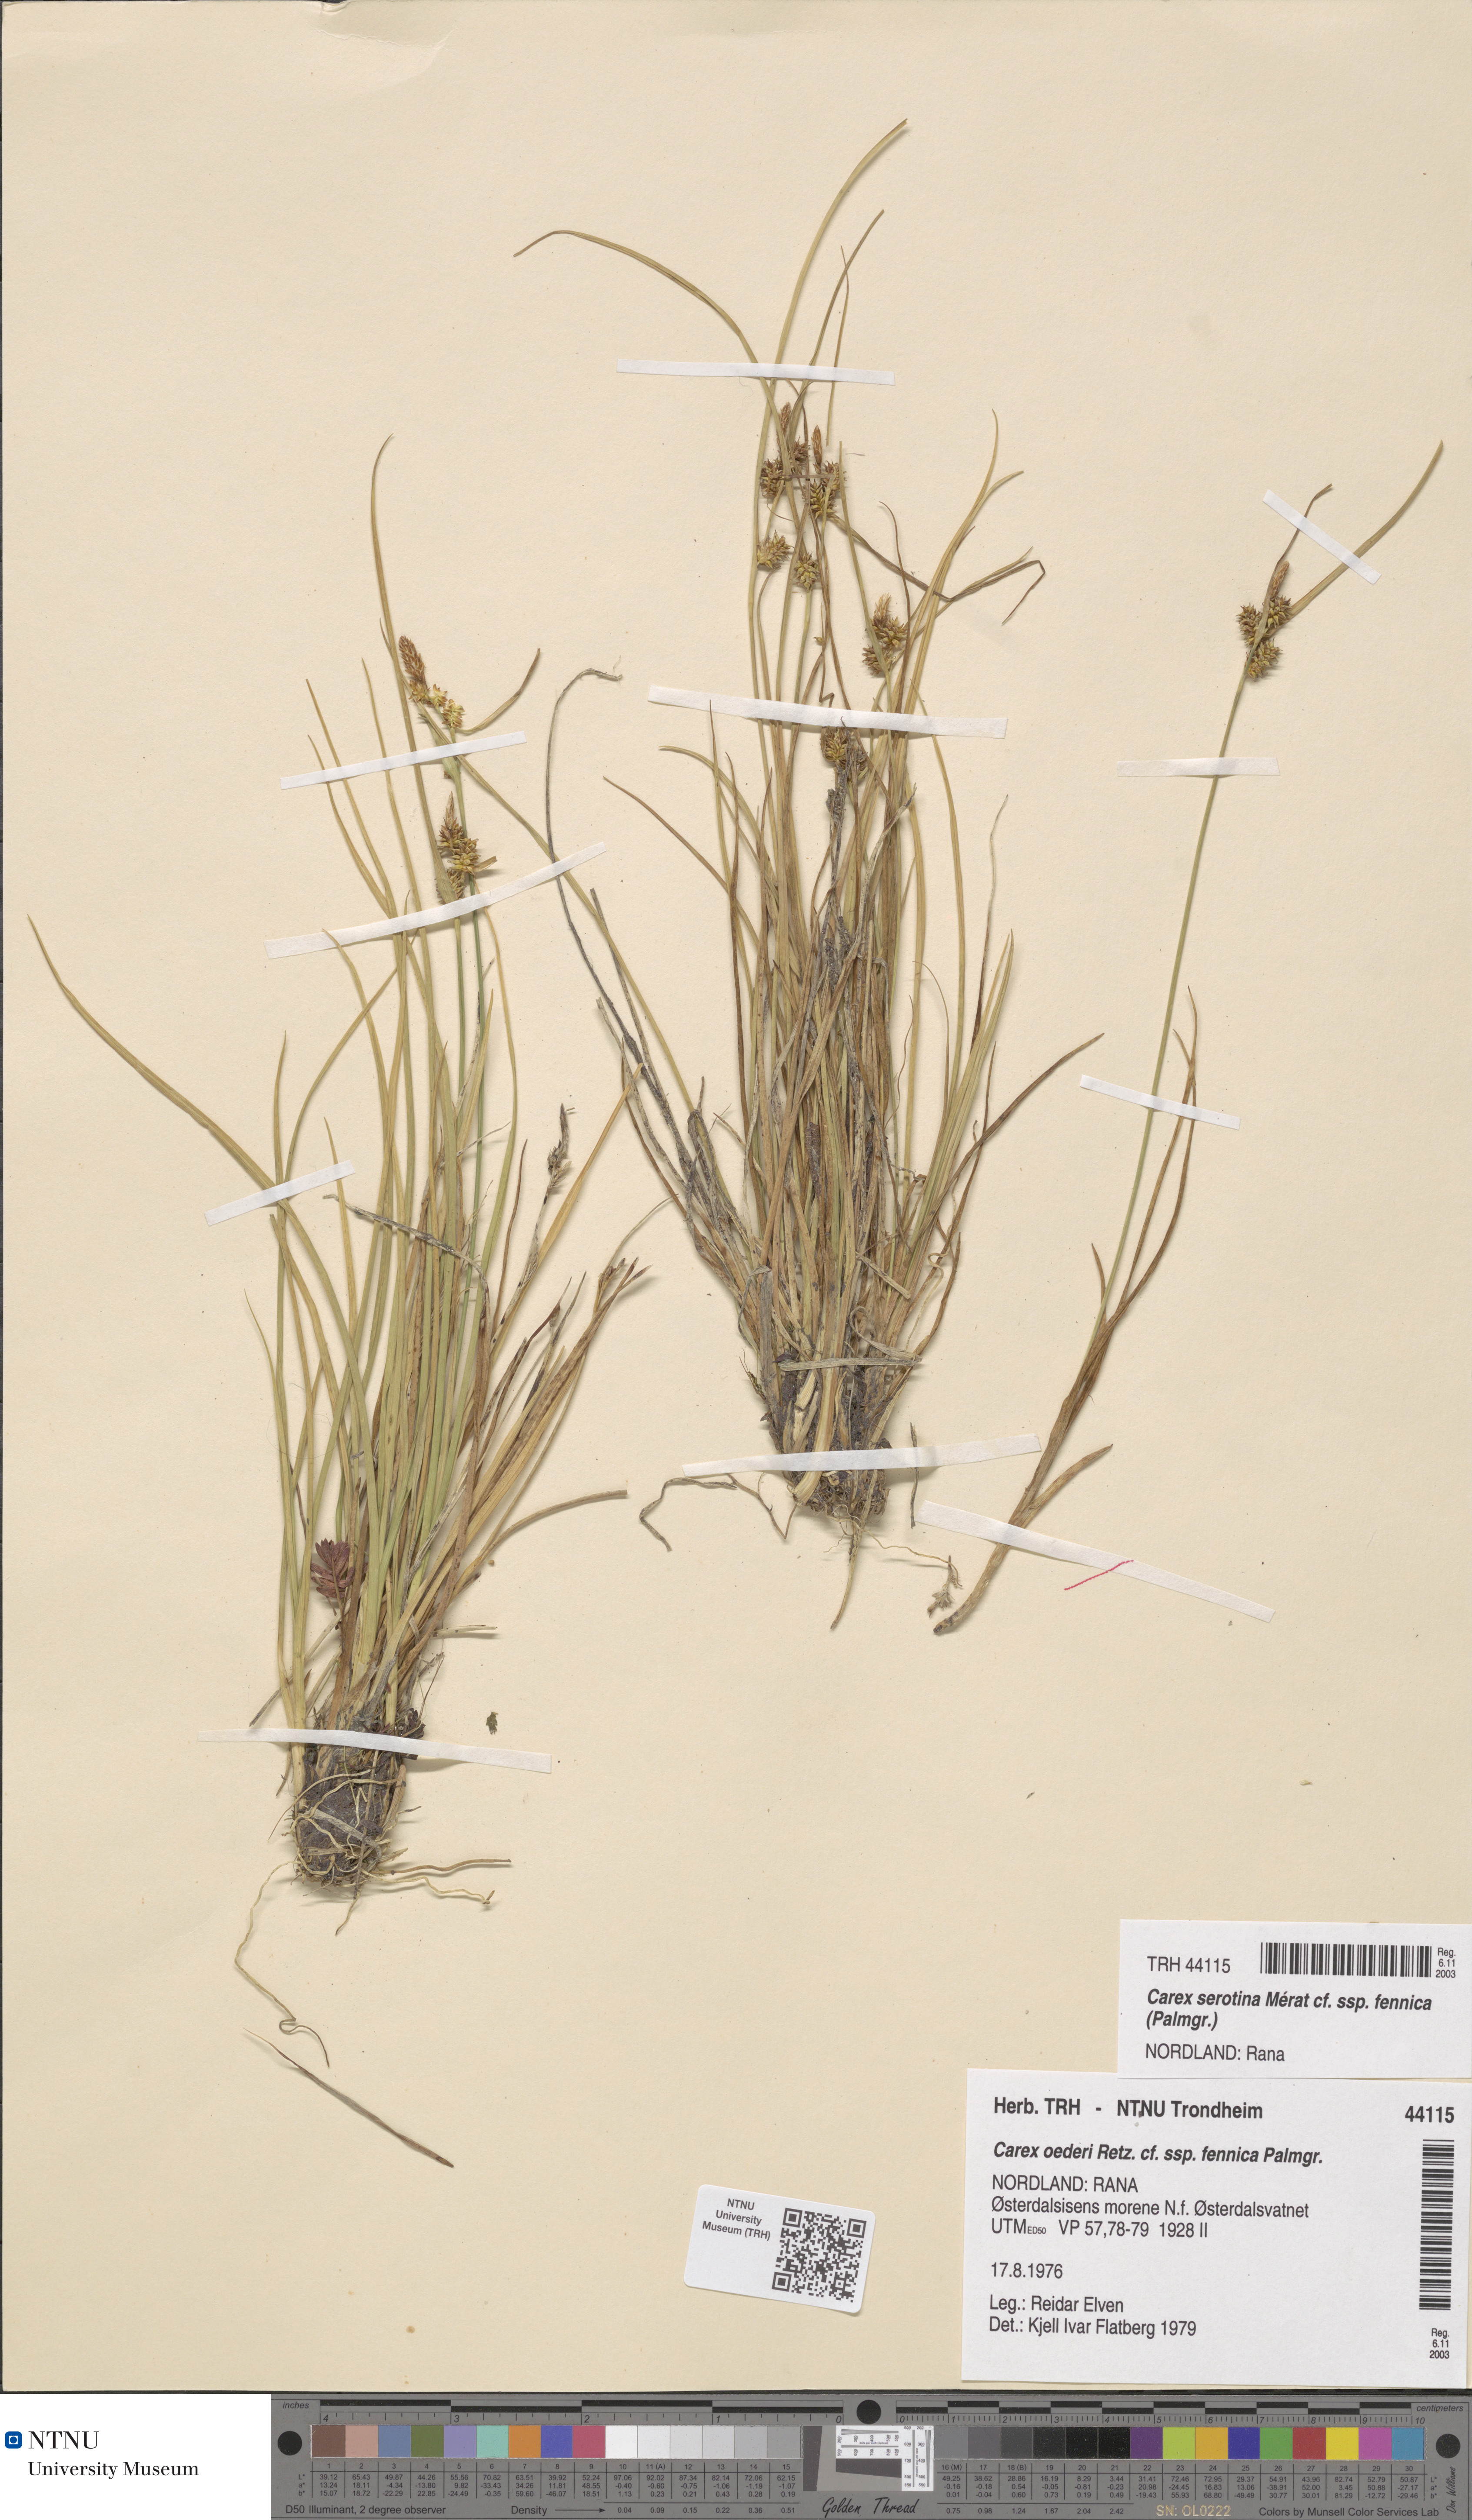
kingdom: Plantae
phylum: Tracheophyta
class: Liliopsida
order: Poales
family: Cyperaceae
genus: Carex
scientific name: Carex
